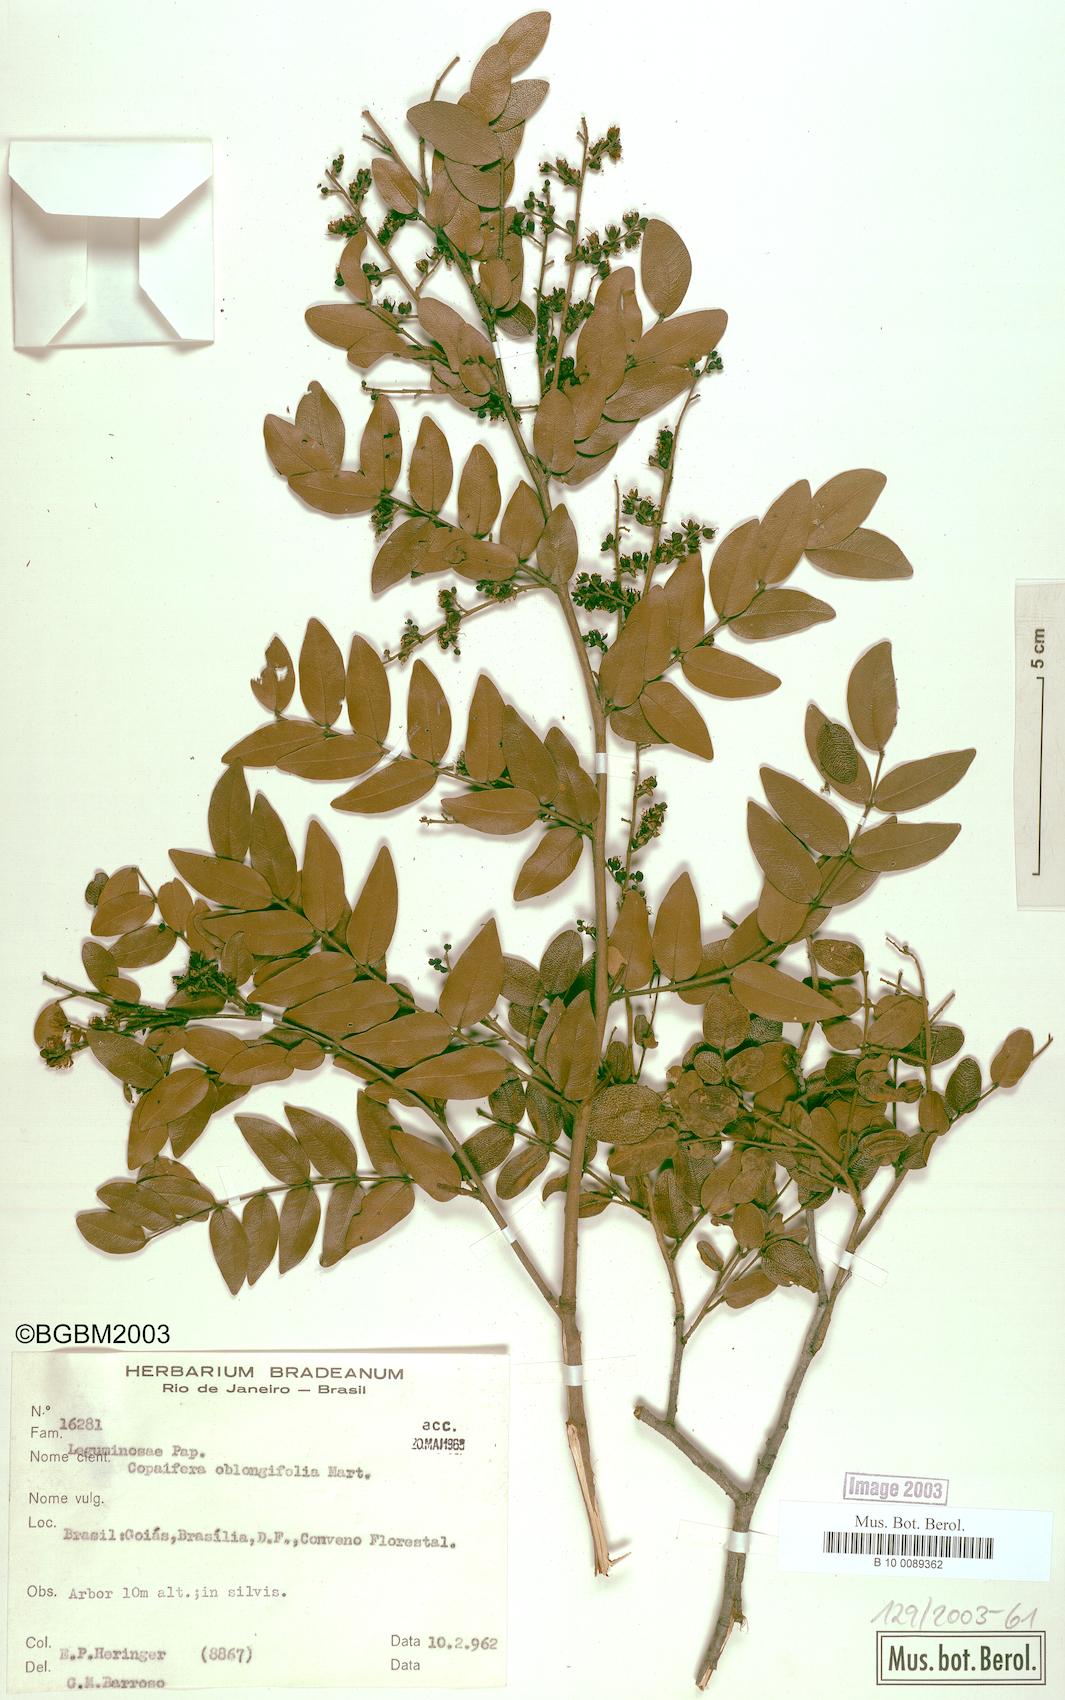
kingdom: Plantae
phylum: Tracheophyta
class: Magnoliopsida
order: Fabales
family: Fabaceae
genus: Copaifera
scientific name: Copaifera oblongifolia
